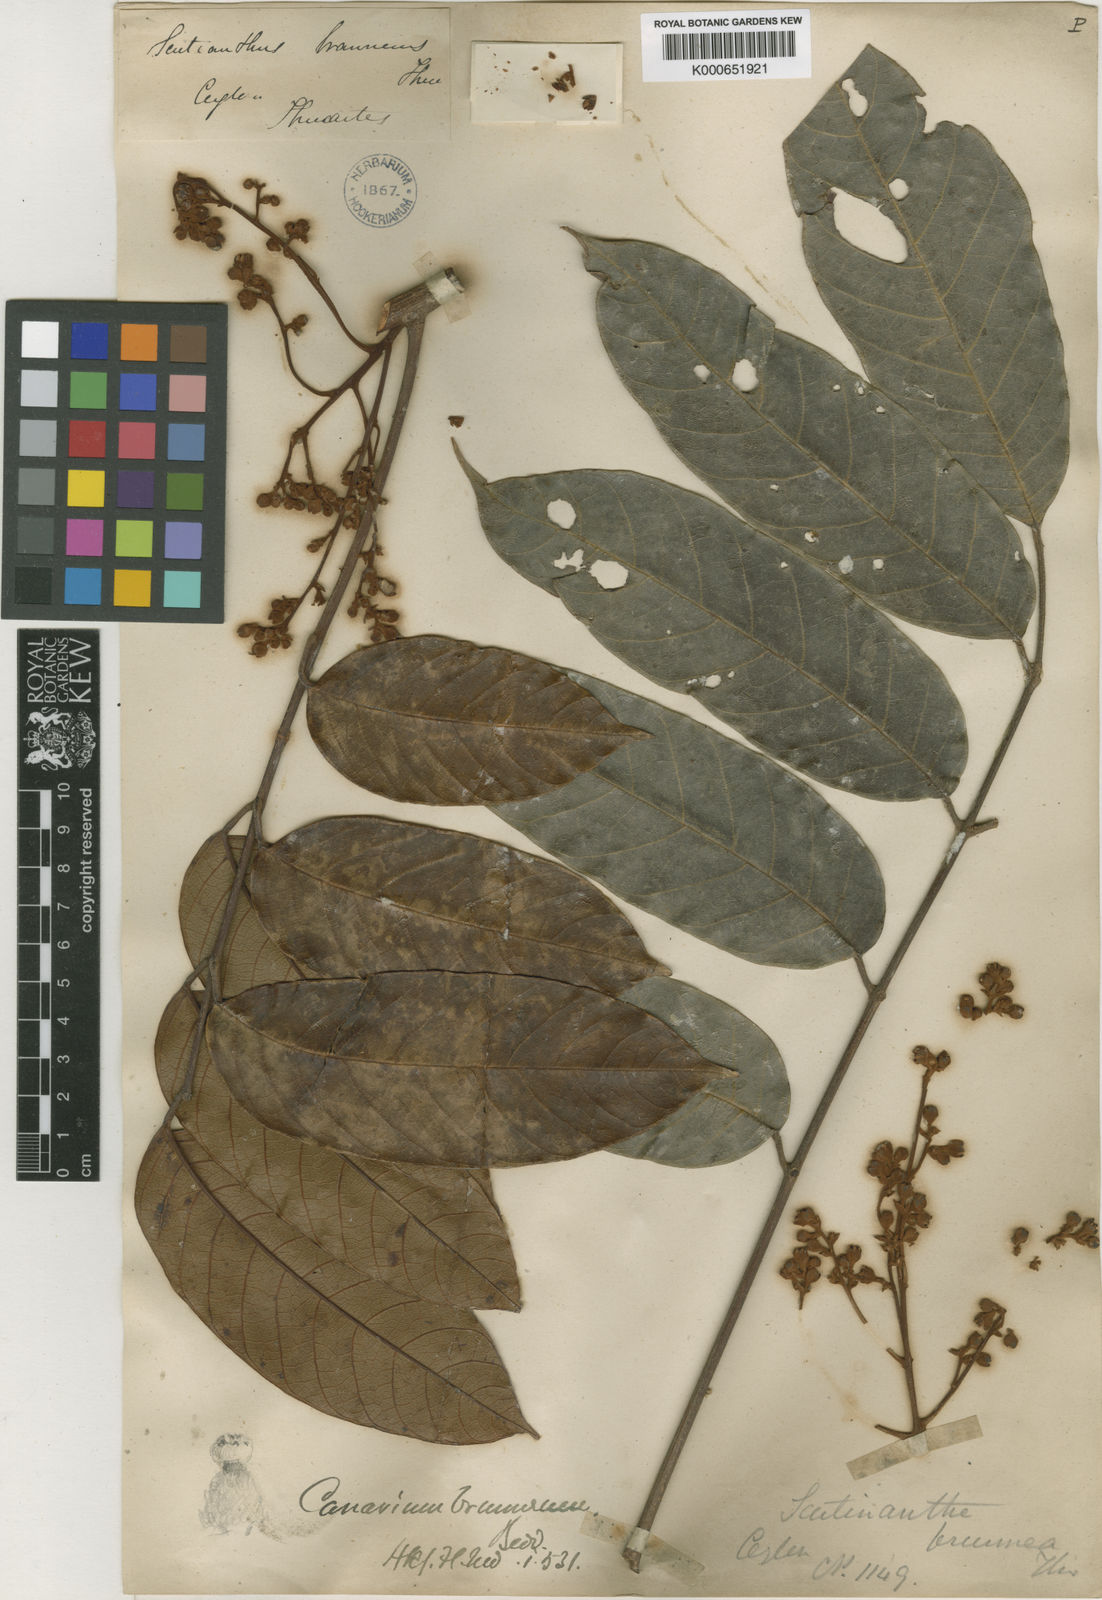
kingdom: Plantae
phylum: Tracheophyta
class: Magnoliopsida
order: Sapindales
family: Burseraceae
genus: Scutinanthe
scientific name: Scutinanthe brunnea
